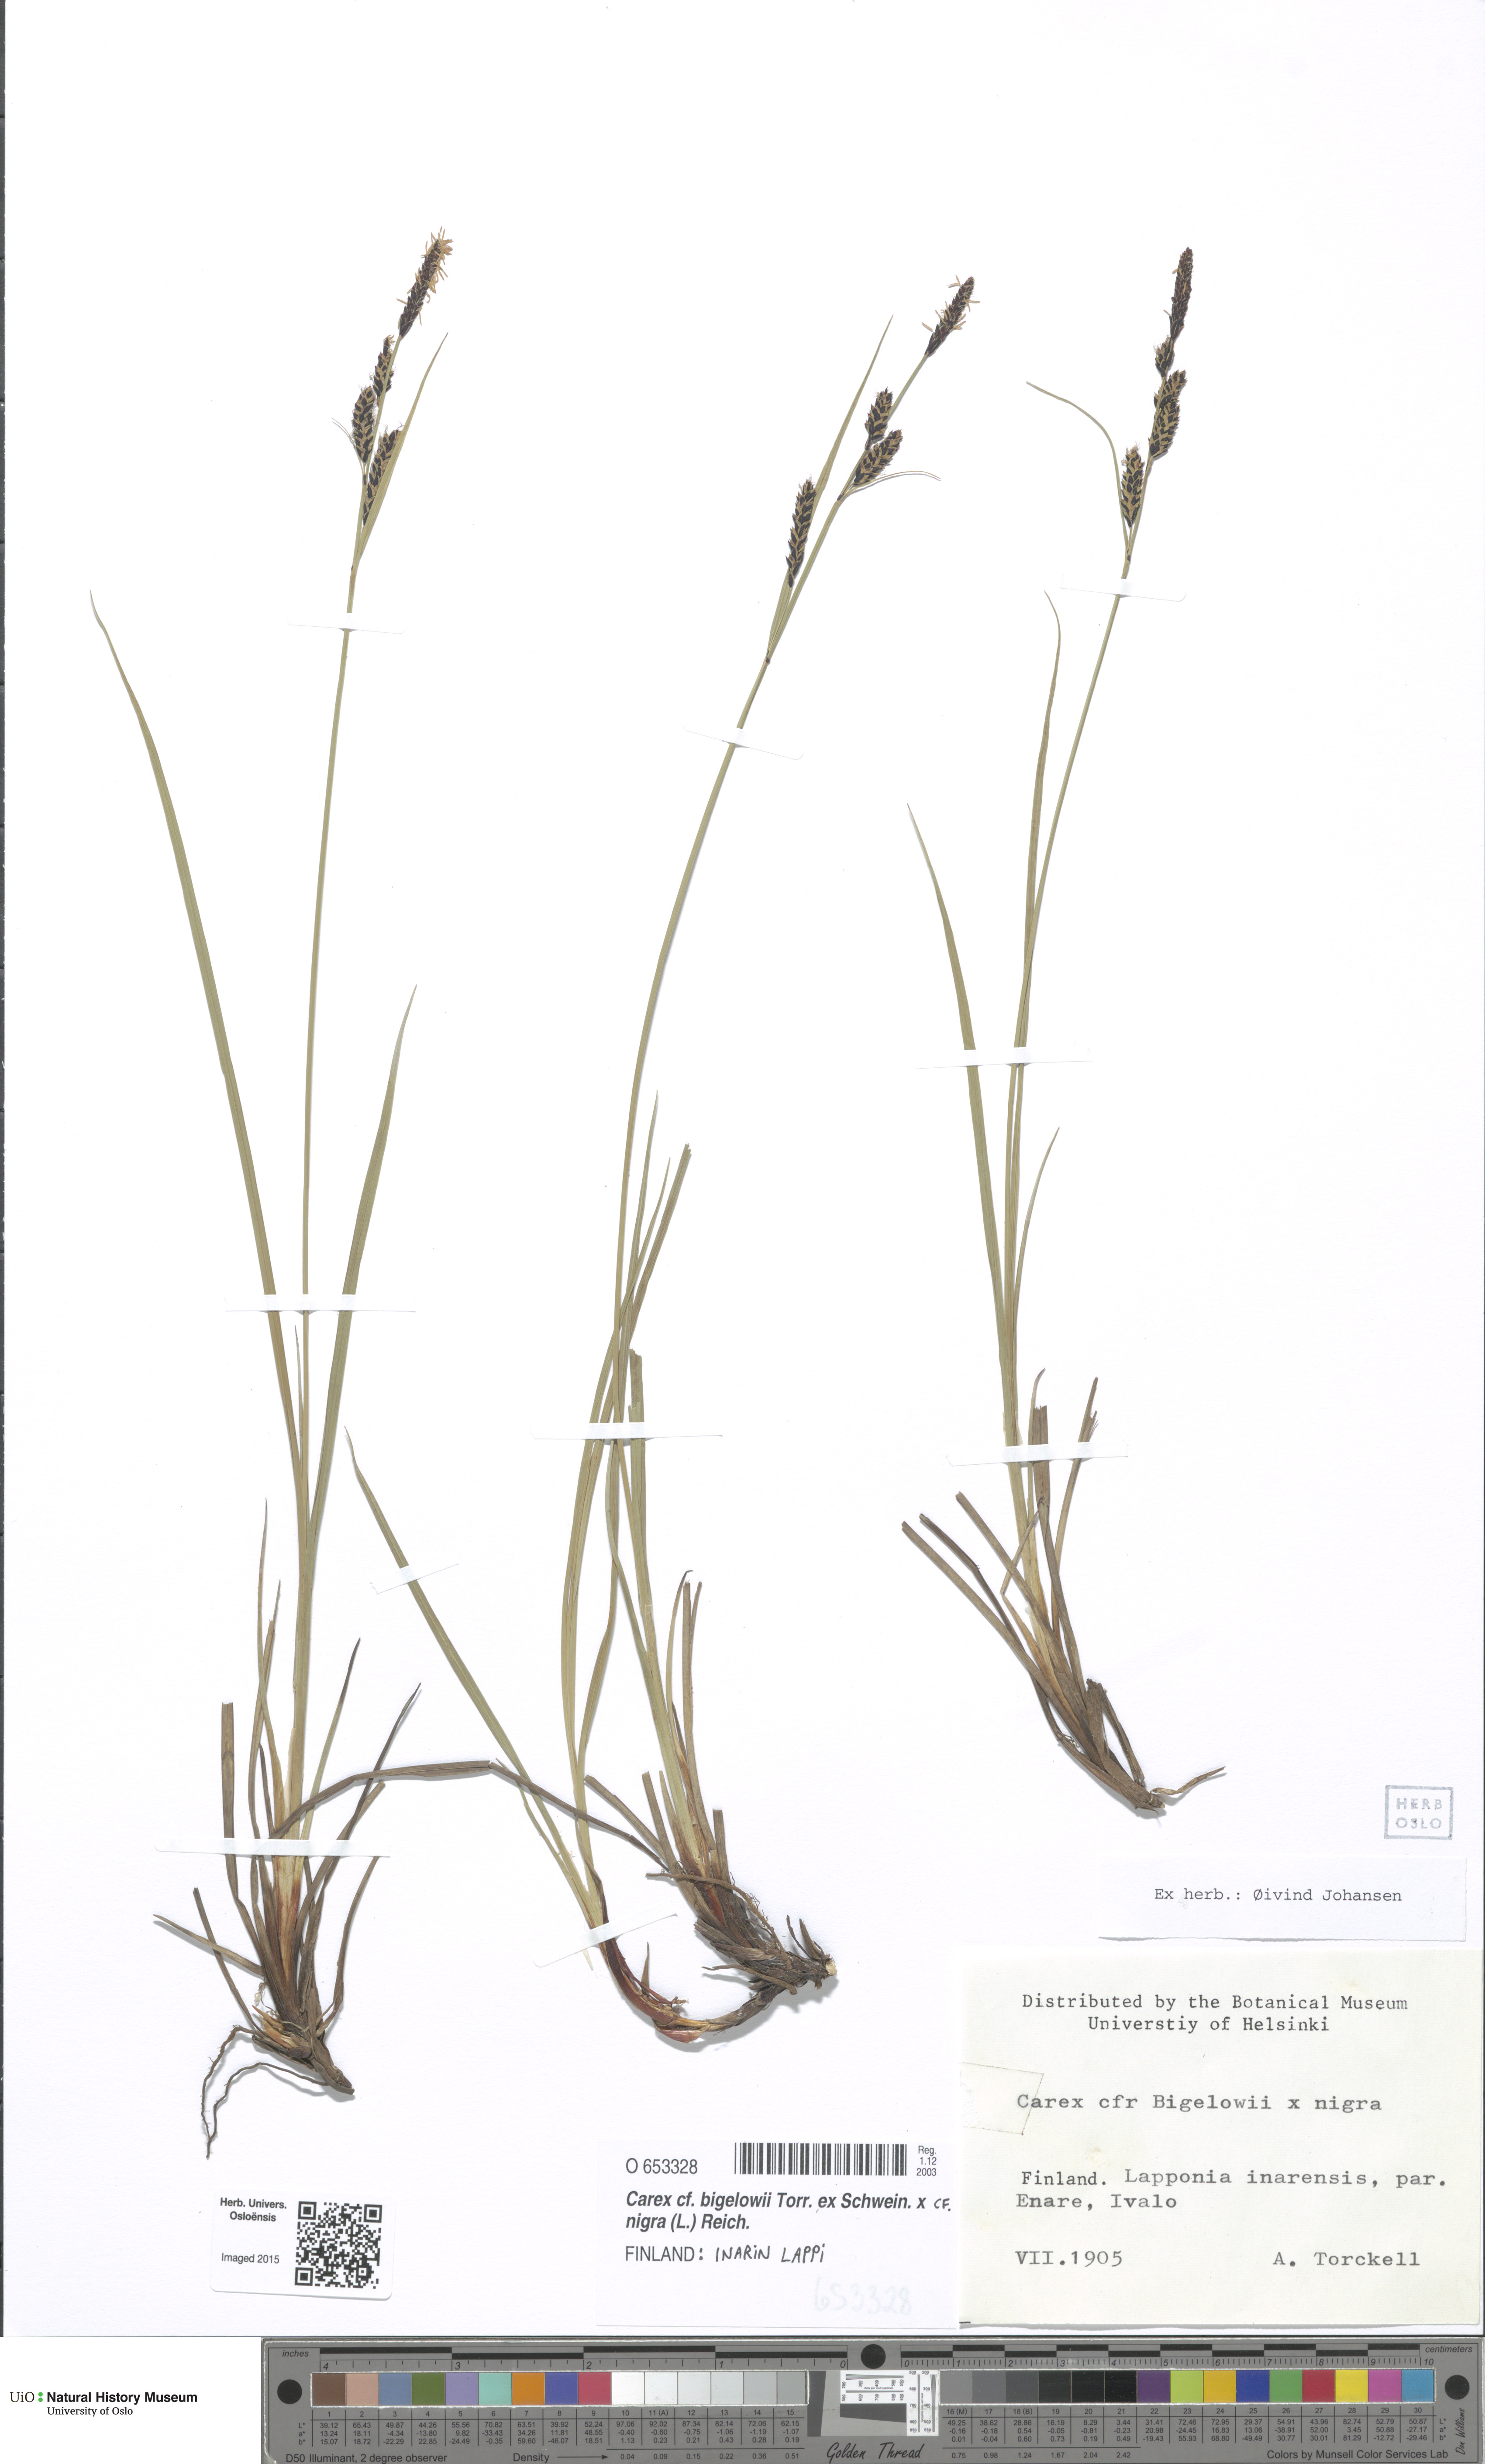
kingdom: Plantae
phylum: Tracheophyta
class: Liliopsida
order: Poales
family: Cyperaceae
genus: Carex
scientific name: Carex
